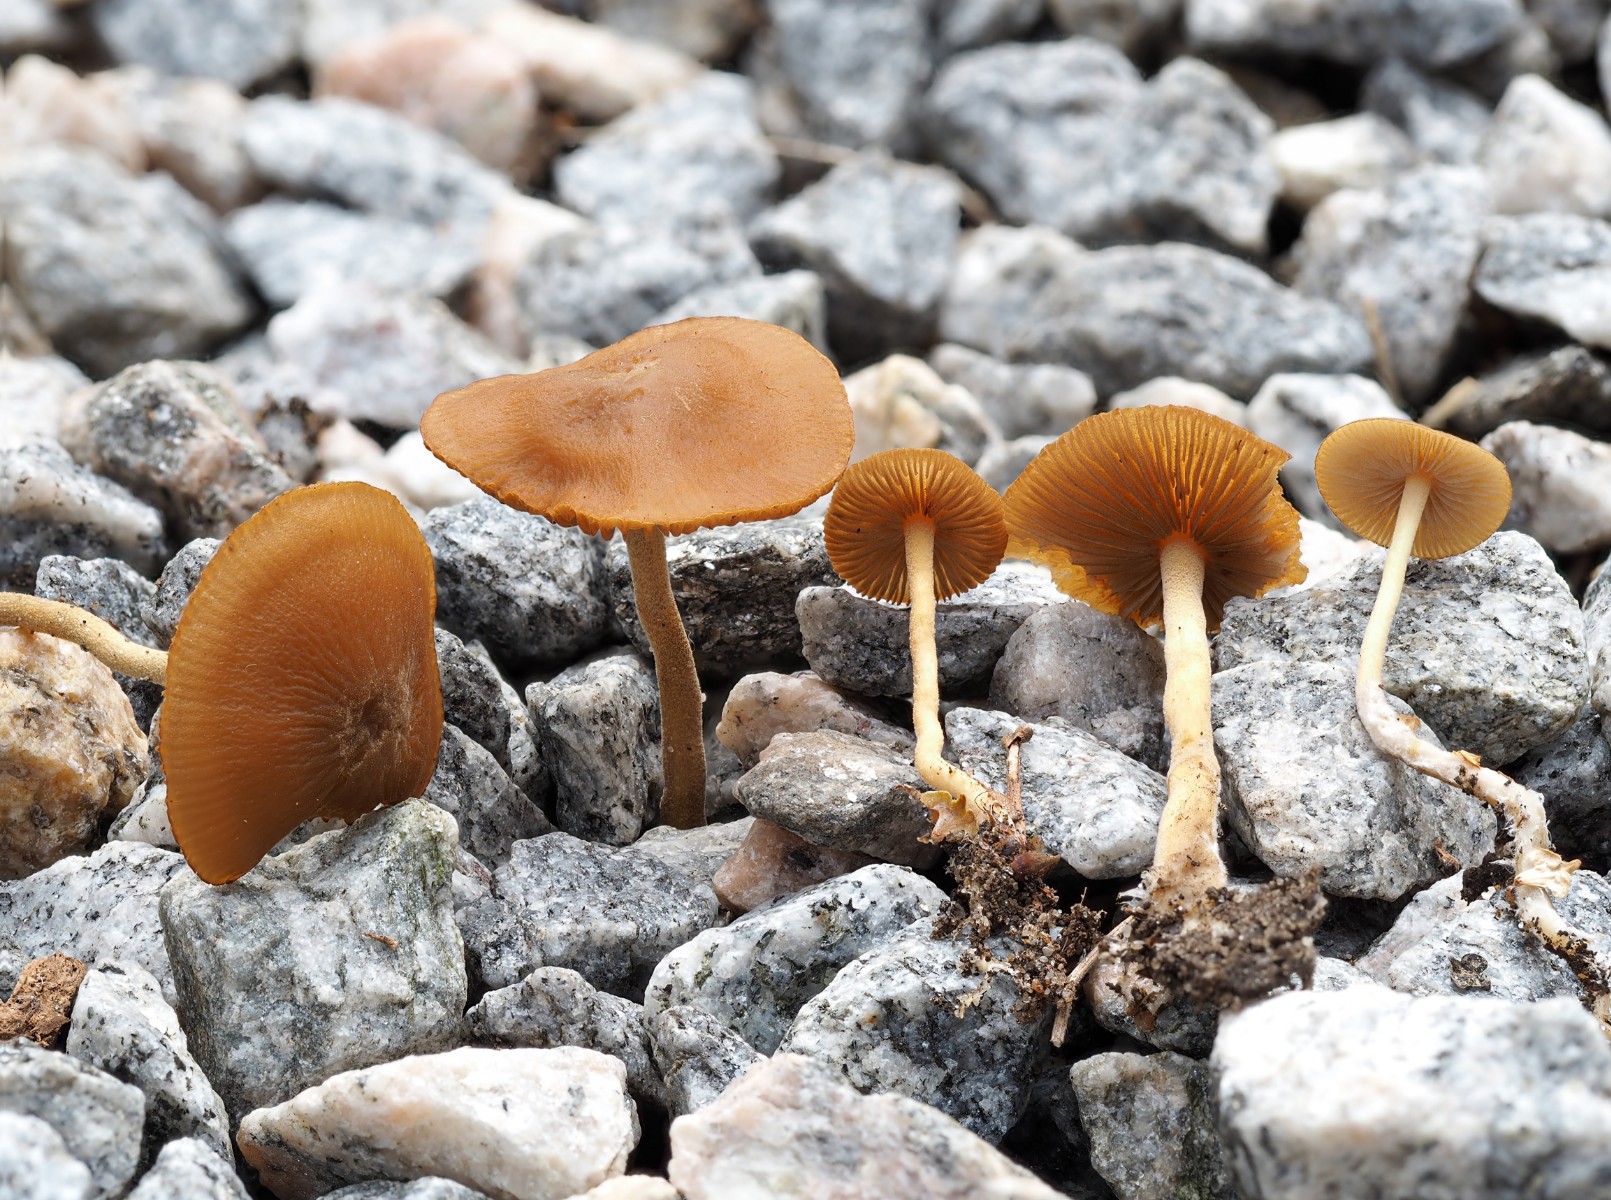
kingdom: Fungi
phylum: Basidiomycota
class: Agaricomycetes
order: Agaricales
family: Strophariaceae
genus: Agrocybe
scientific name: Agrocybe arvalis
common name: rodslående agerhat
